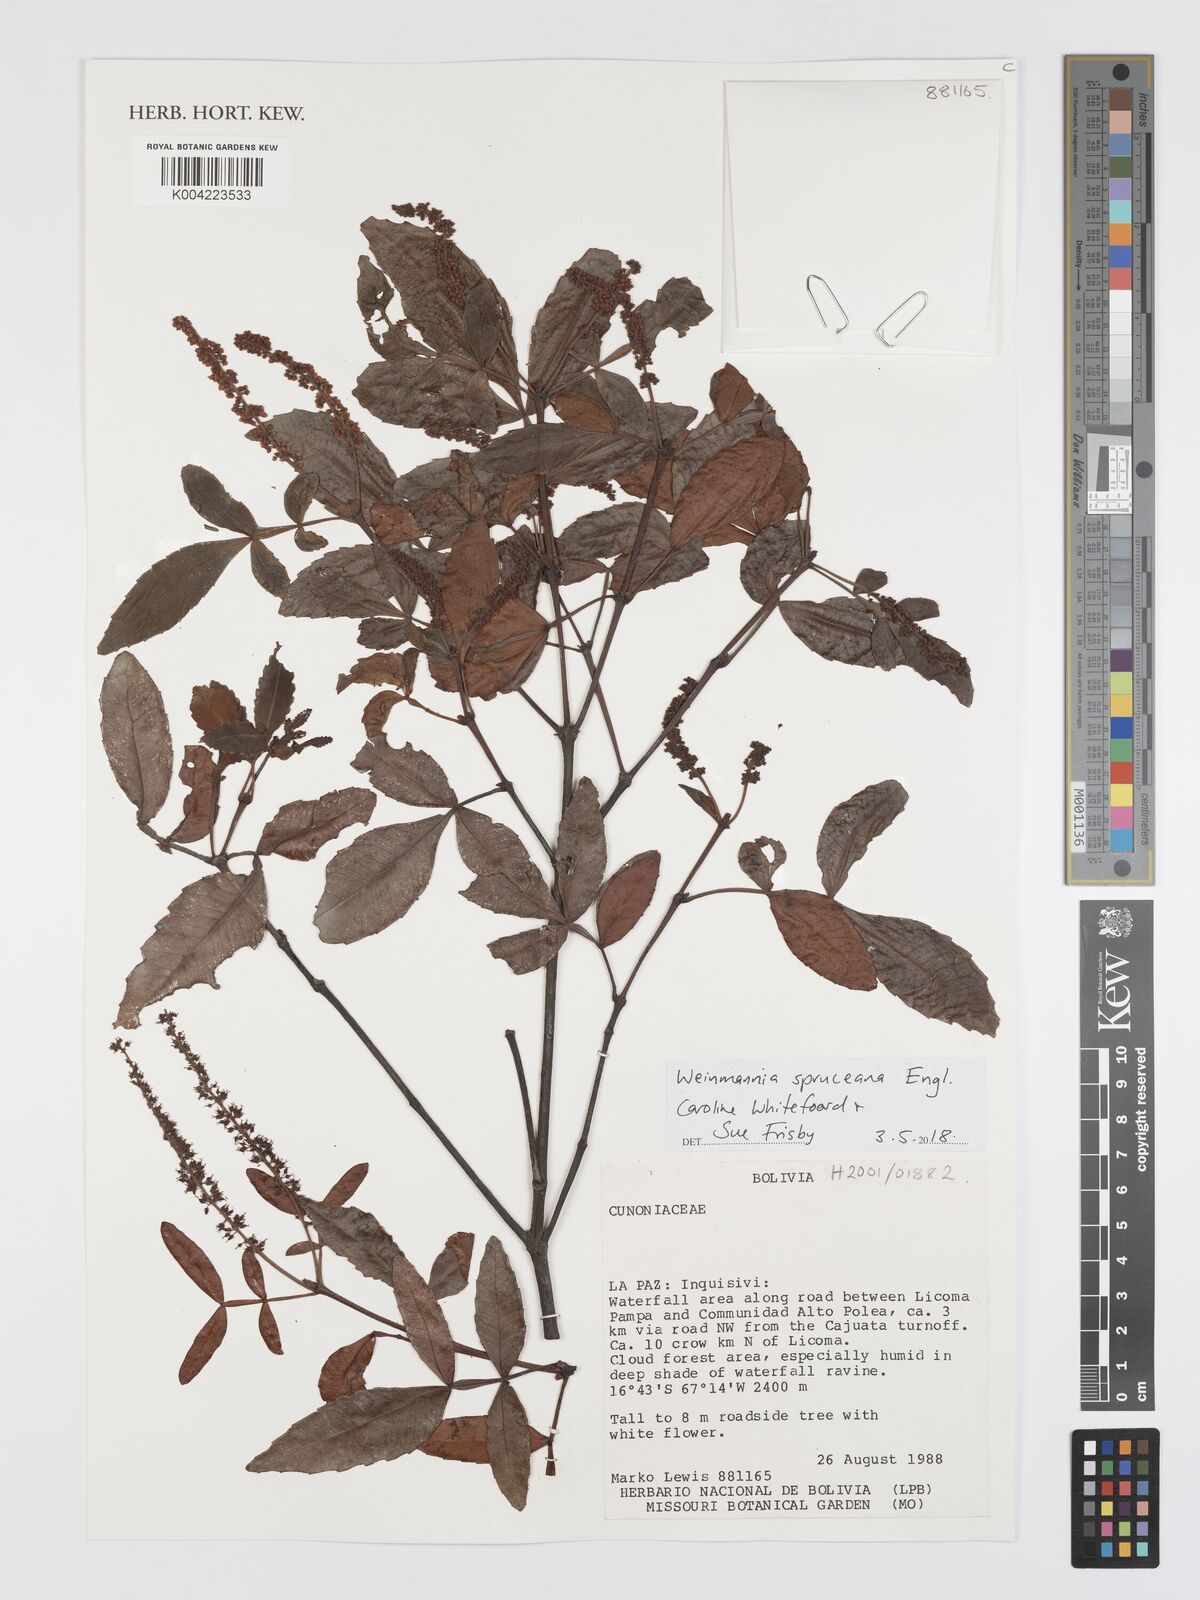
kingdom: Plantae
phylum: Tracheophyta
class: Magnoliopsida
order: Oxalidales
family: Cunoniaceae
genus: Weinmannia
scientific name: Weinmannia spruceana
